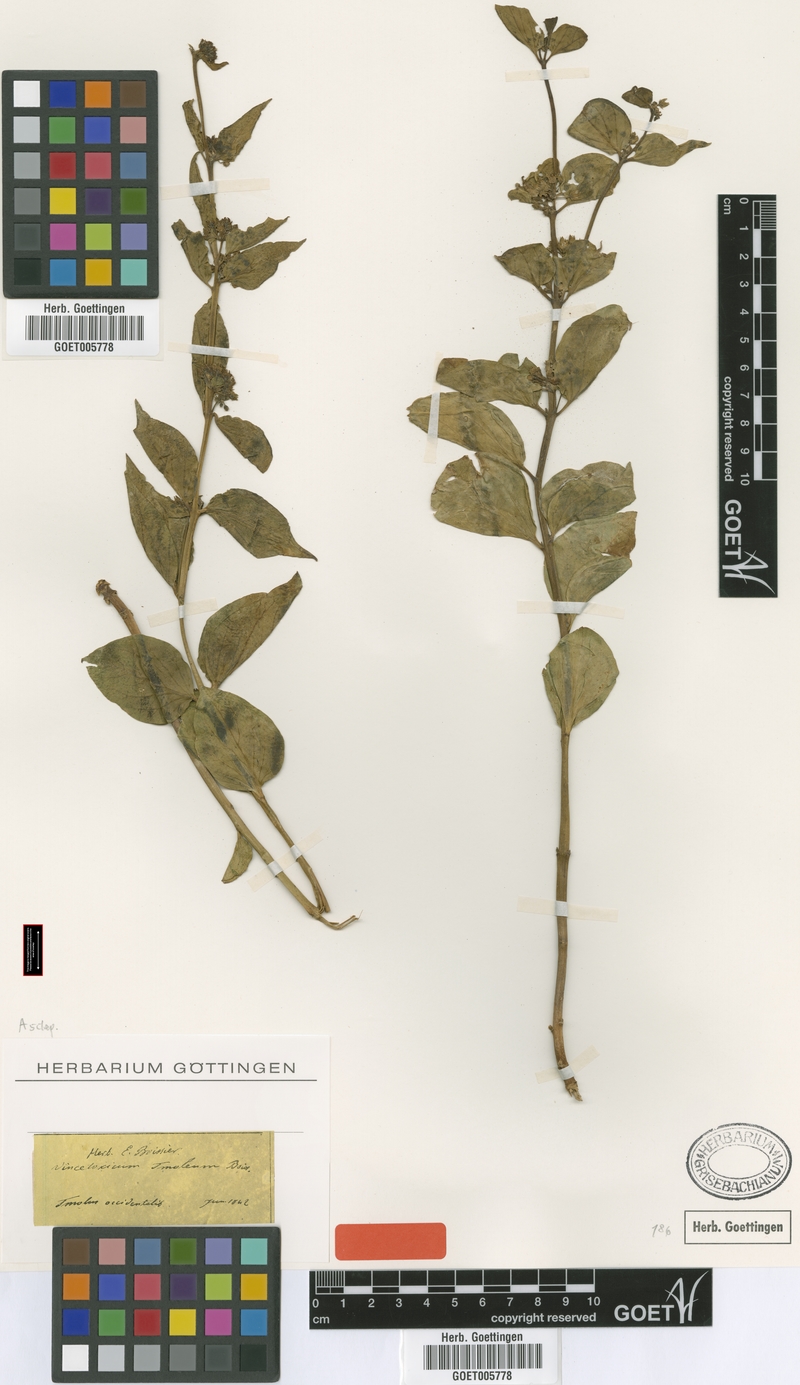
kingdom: Plantae
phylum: Tracheophyta
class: Magnoliopsida
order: Gentianales
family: Apocynaceae
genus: Vincetoxicum
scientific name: Vincetoxicum tmoleum
